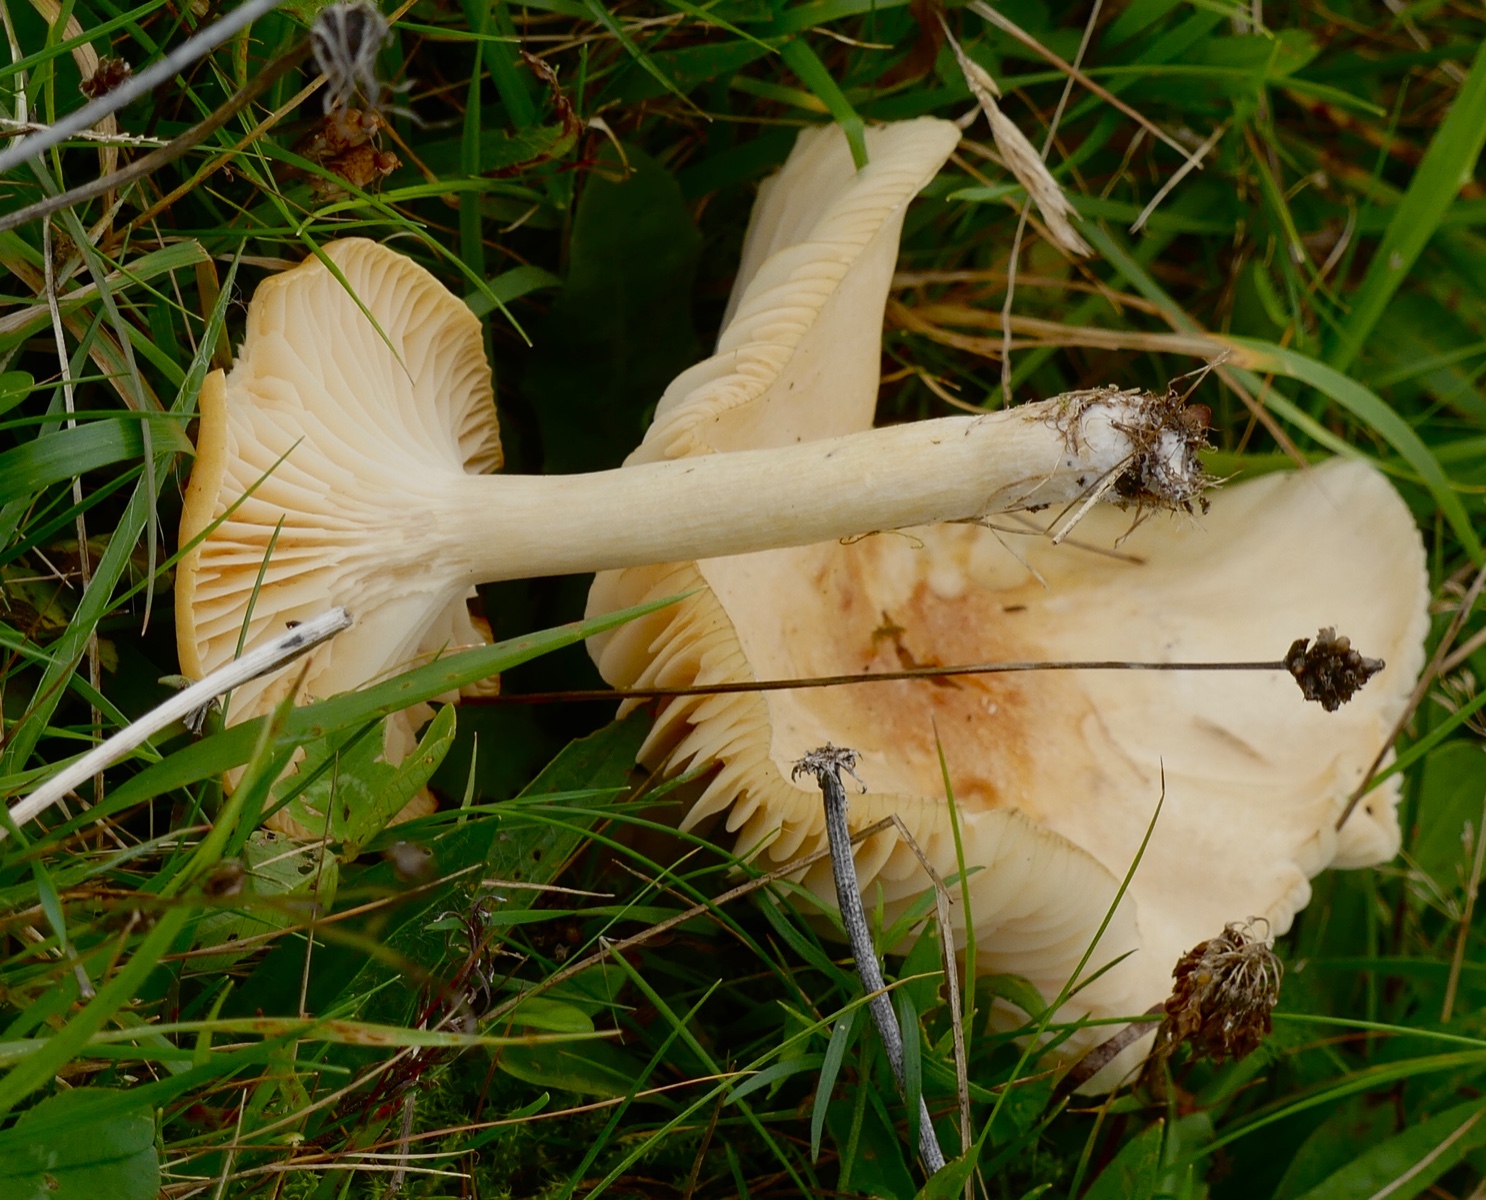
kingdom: Fungi
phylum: Basidiomycota
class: Agaricomycetes
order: Agaricales
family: Hygrophoraceae
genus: Cuphophyllus
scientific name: Cuphophyllus pratensis
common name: eng-vokshat
